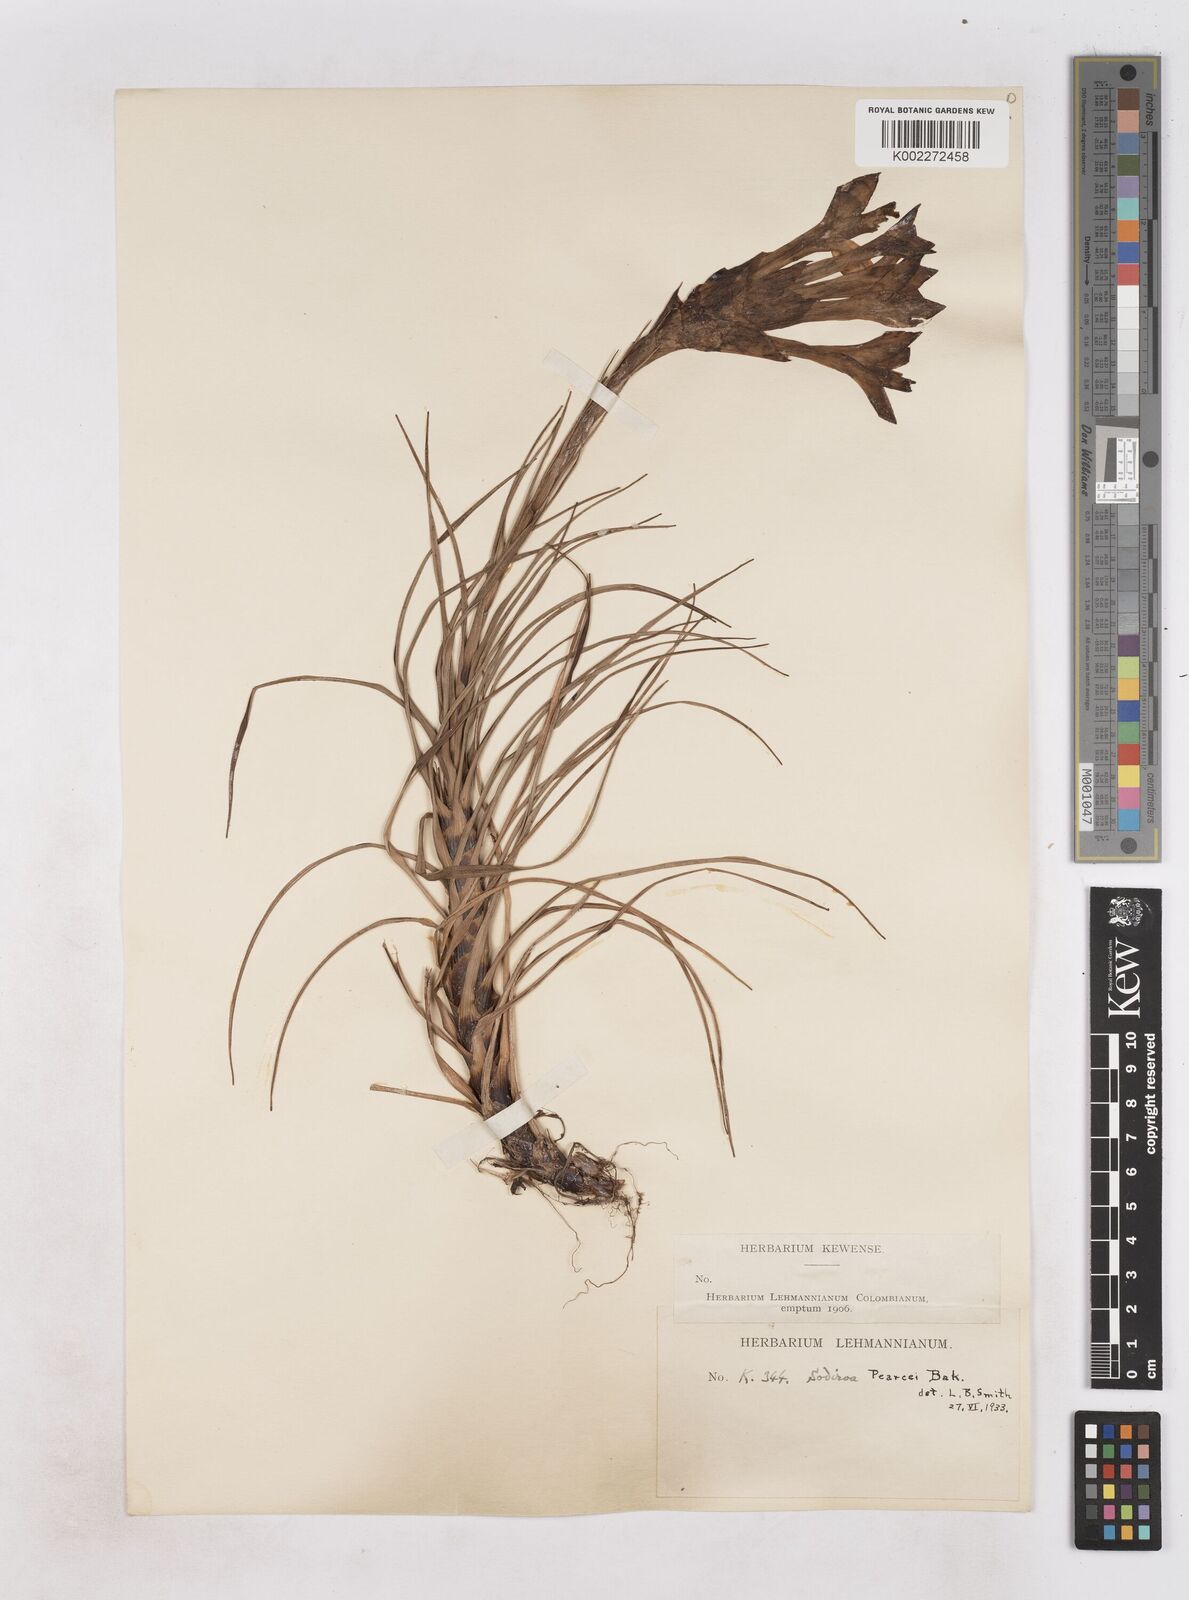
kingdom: Plantae
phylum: Tracheophyta
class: Liliopsida
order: Poales
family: Bromeliaceae
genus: Guzmania
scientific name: Guzmania pearcei
